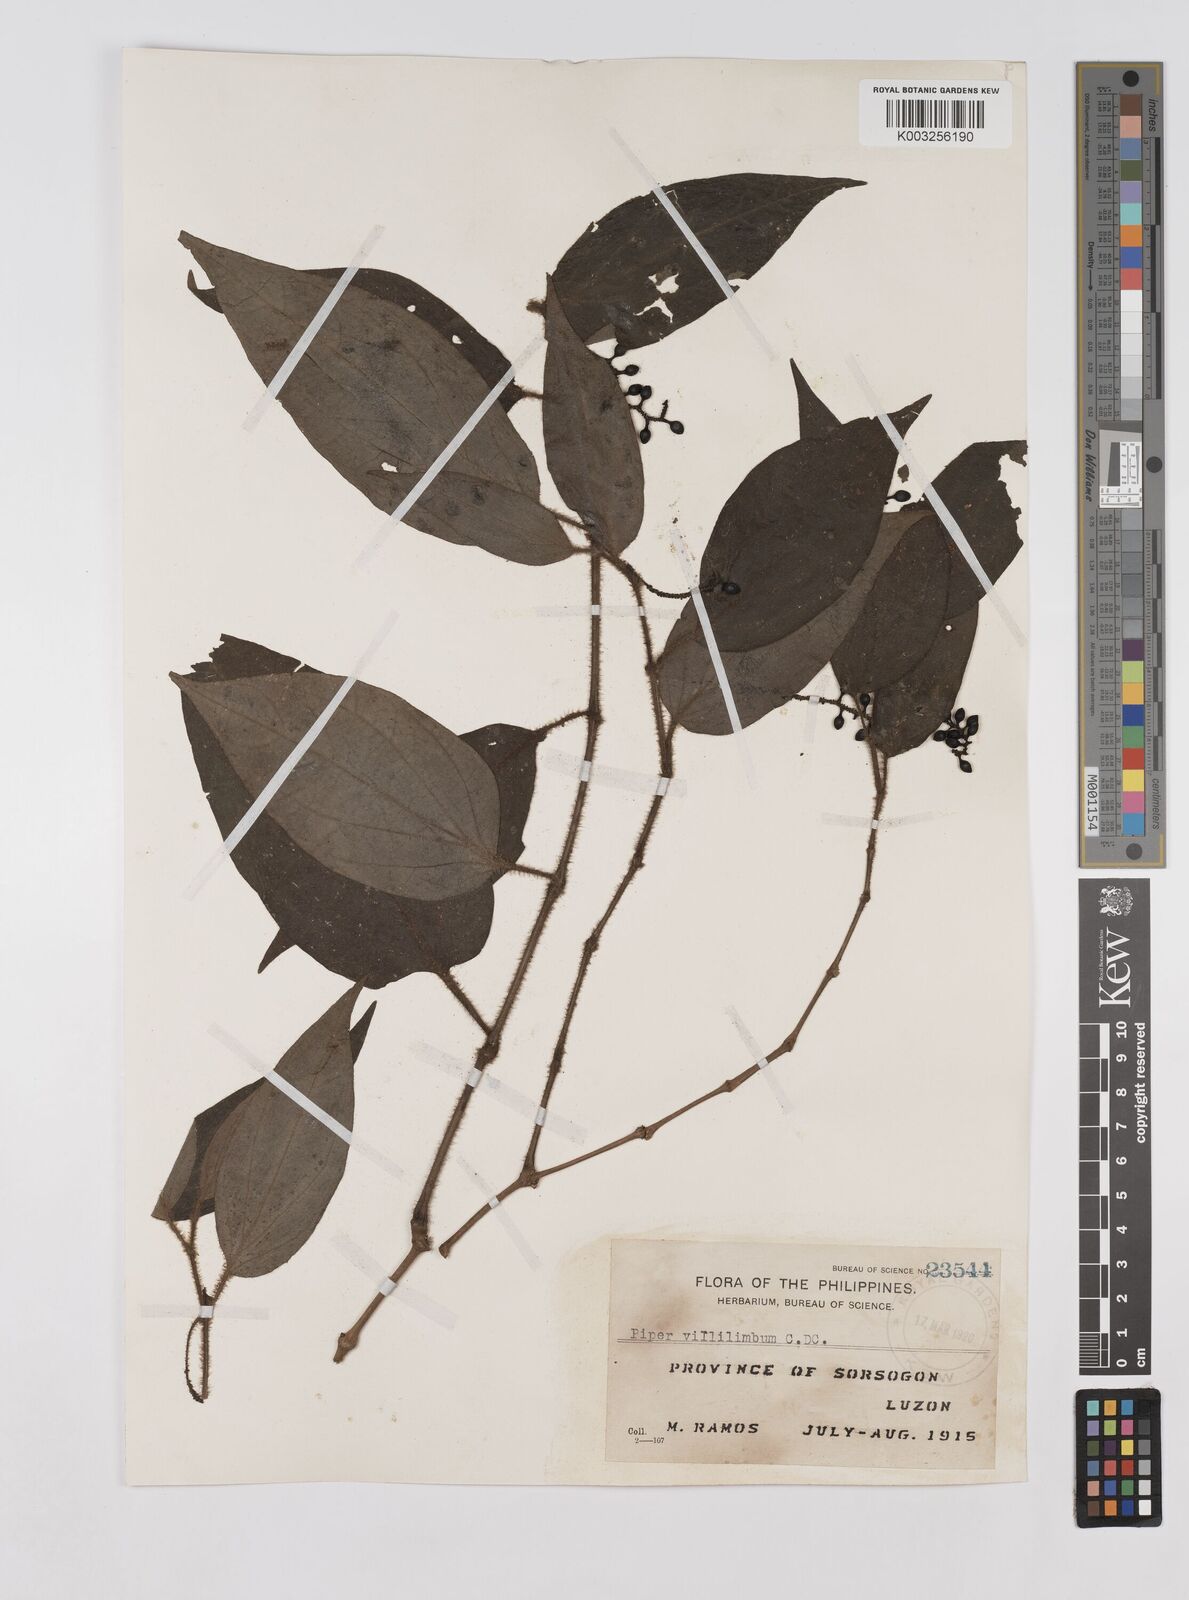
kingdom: Plantae
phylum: Tracheophyta
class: Magnoliopsida
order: Piperales
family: Piperaceae
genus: Piper
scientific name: Piper lanatum
